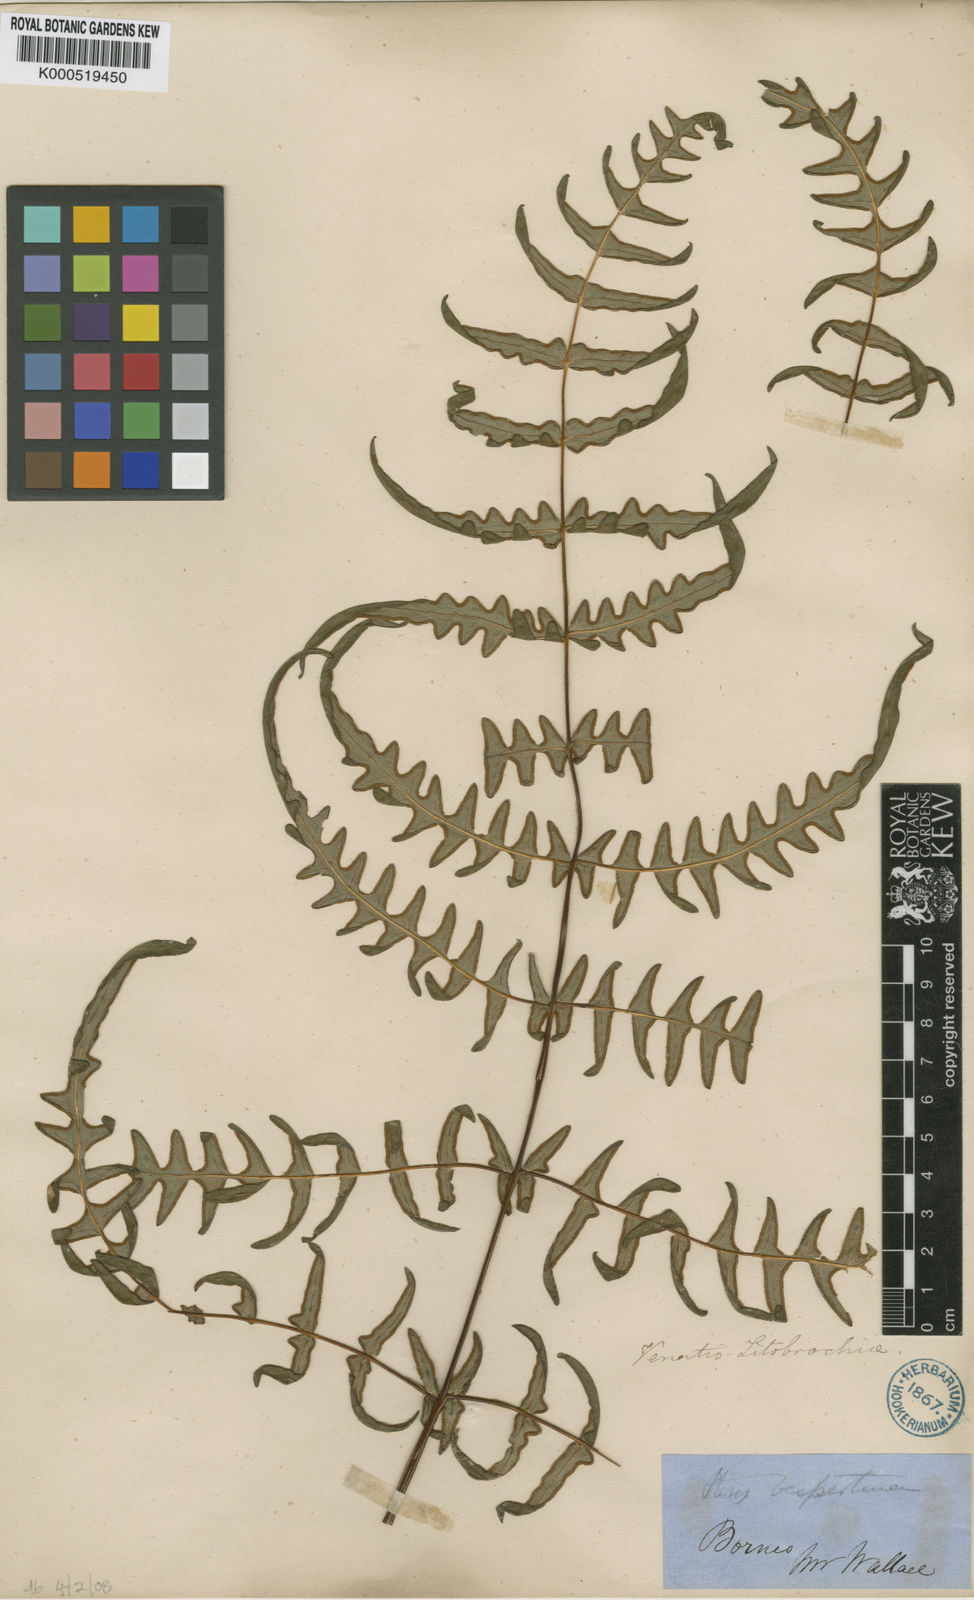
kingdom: Plantae
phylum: Tracheophyta
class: Polypodiopsida
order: Polypodiales
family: Dennstaedtiaceae
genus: Histiopteris
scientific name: Histiopteris incisa
